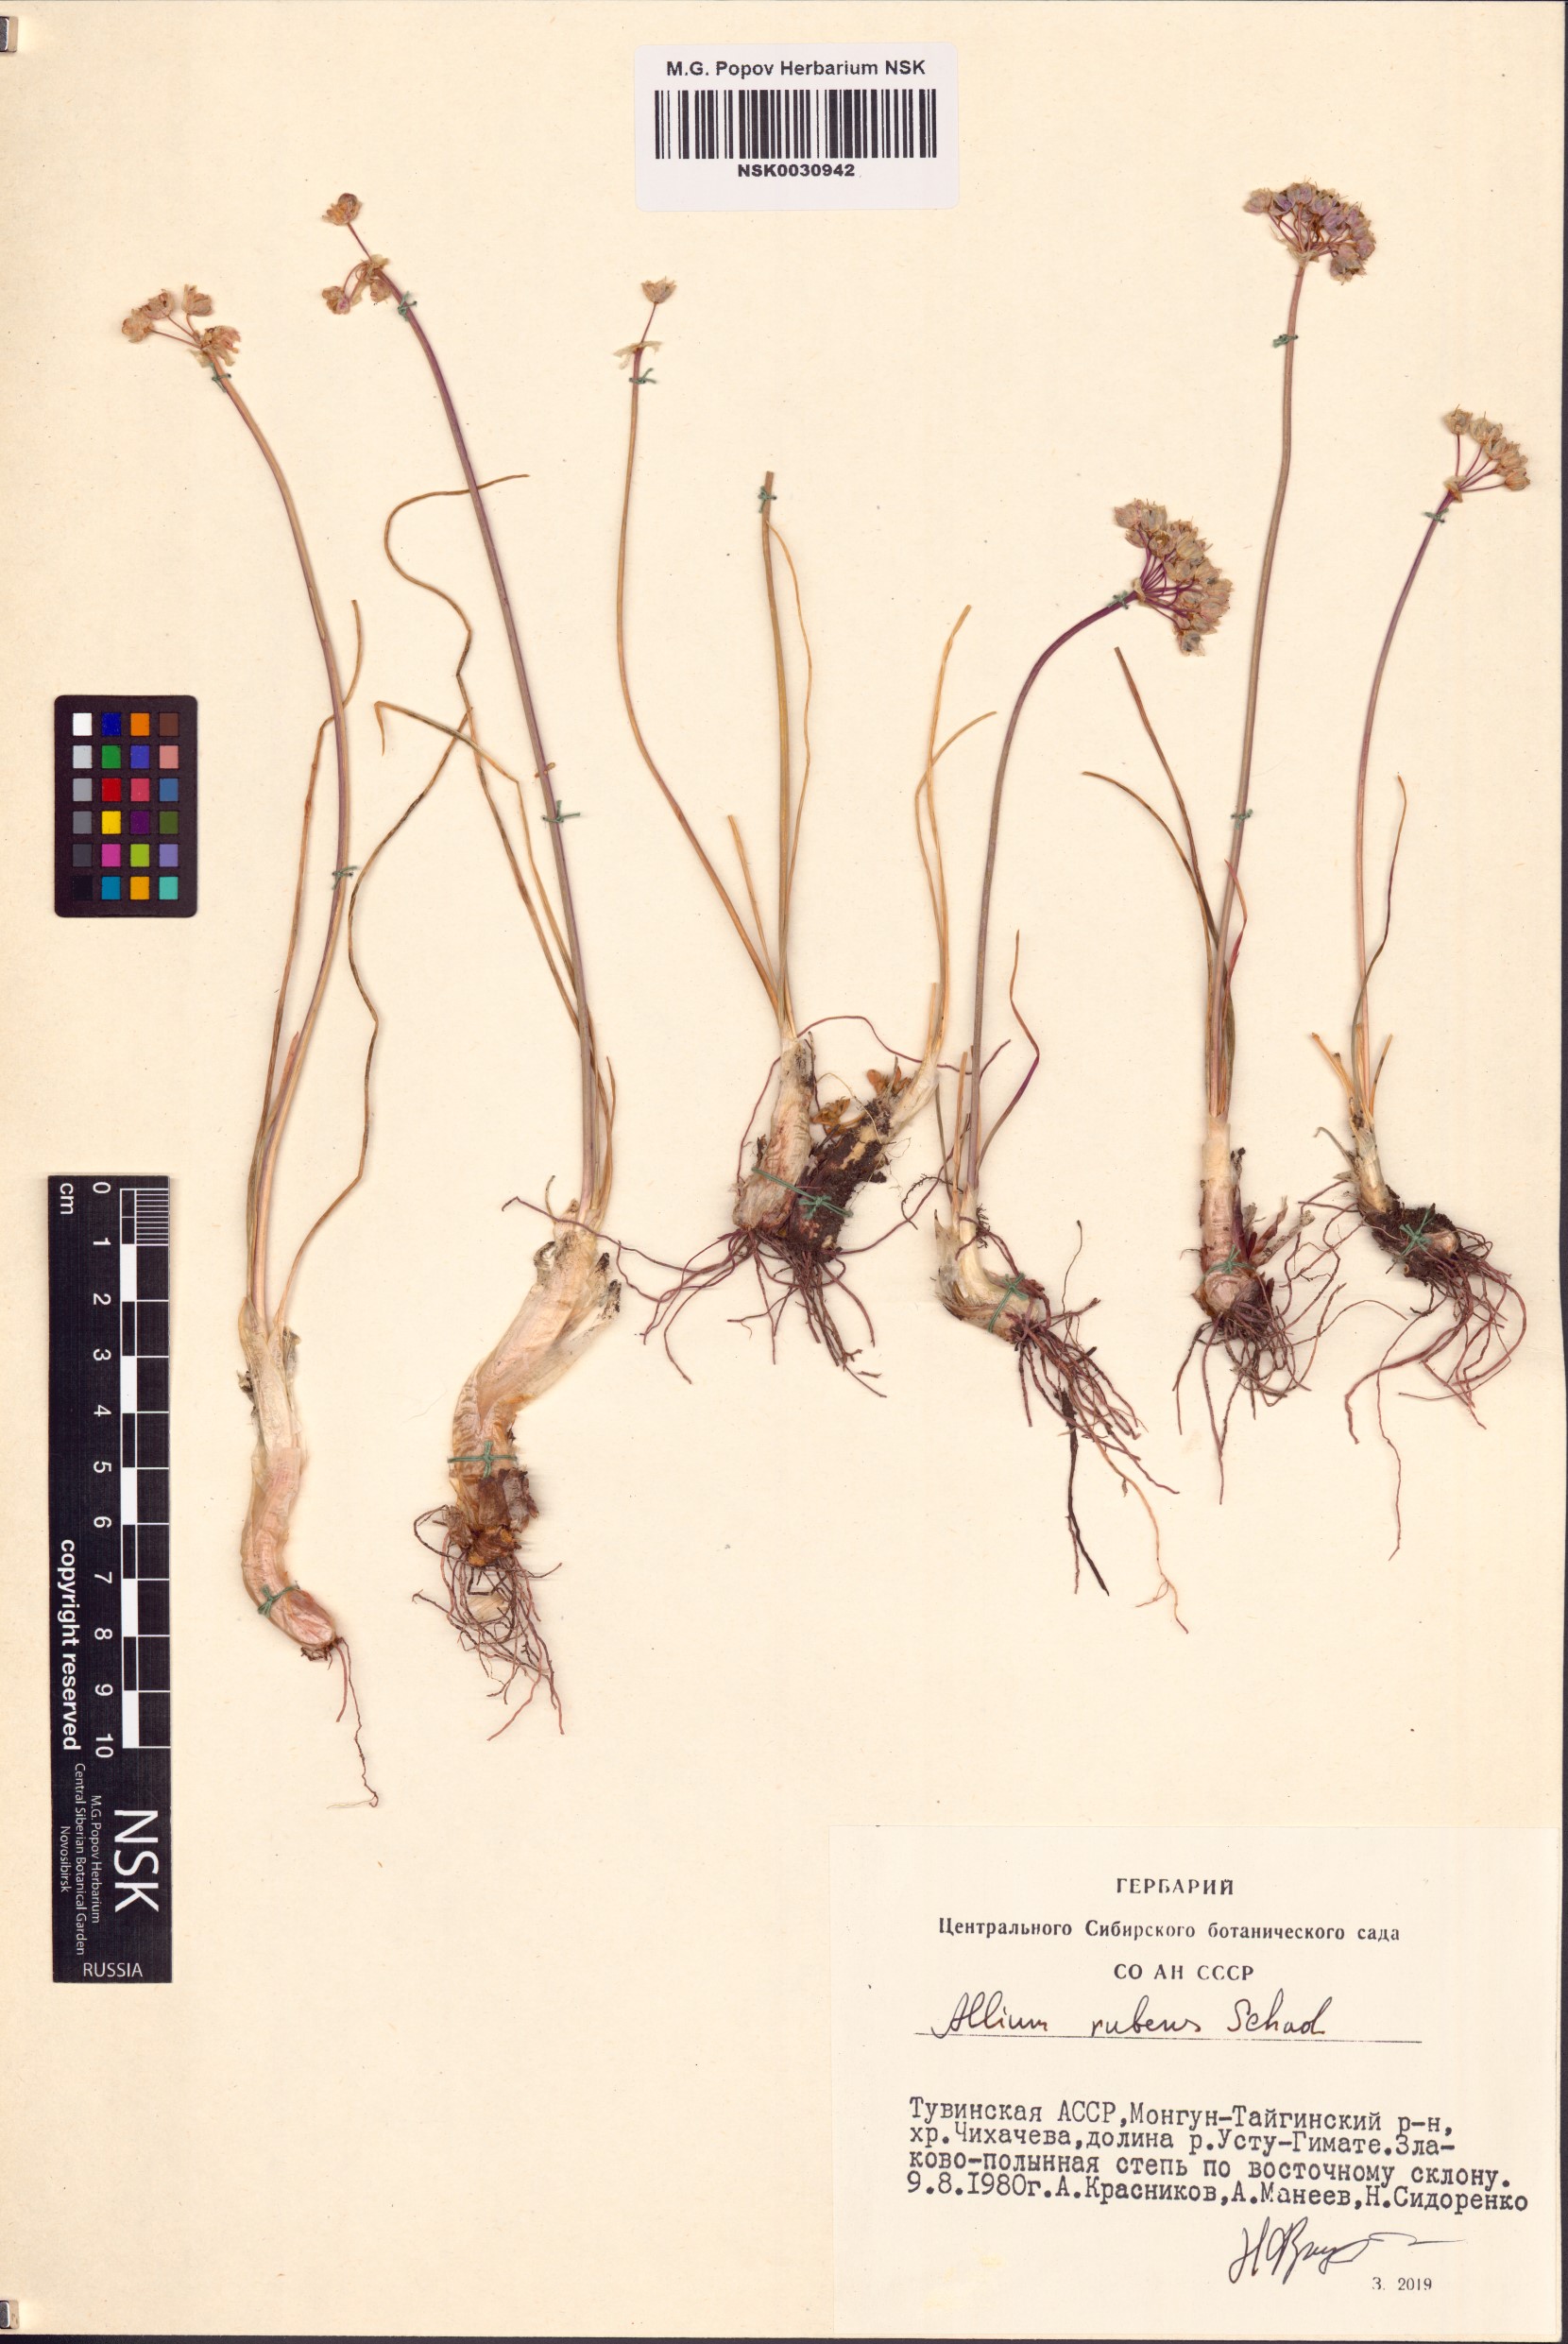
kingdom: Plantae
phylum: Tracheophyta
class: Liliopsida
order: Asparagales
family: Amaryllidaceae
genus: Allium
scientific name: Allium rubens
